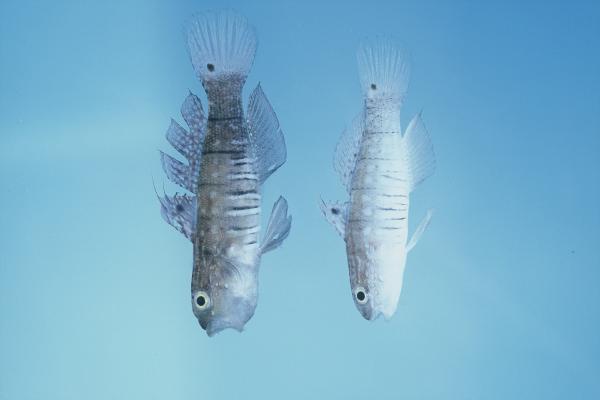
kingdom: Animalia
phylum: Chordata
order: Perciformes
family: Gobiidae
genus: Amblygobius
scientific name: Amblygobius semicinctus
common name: Halfbarred goby
